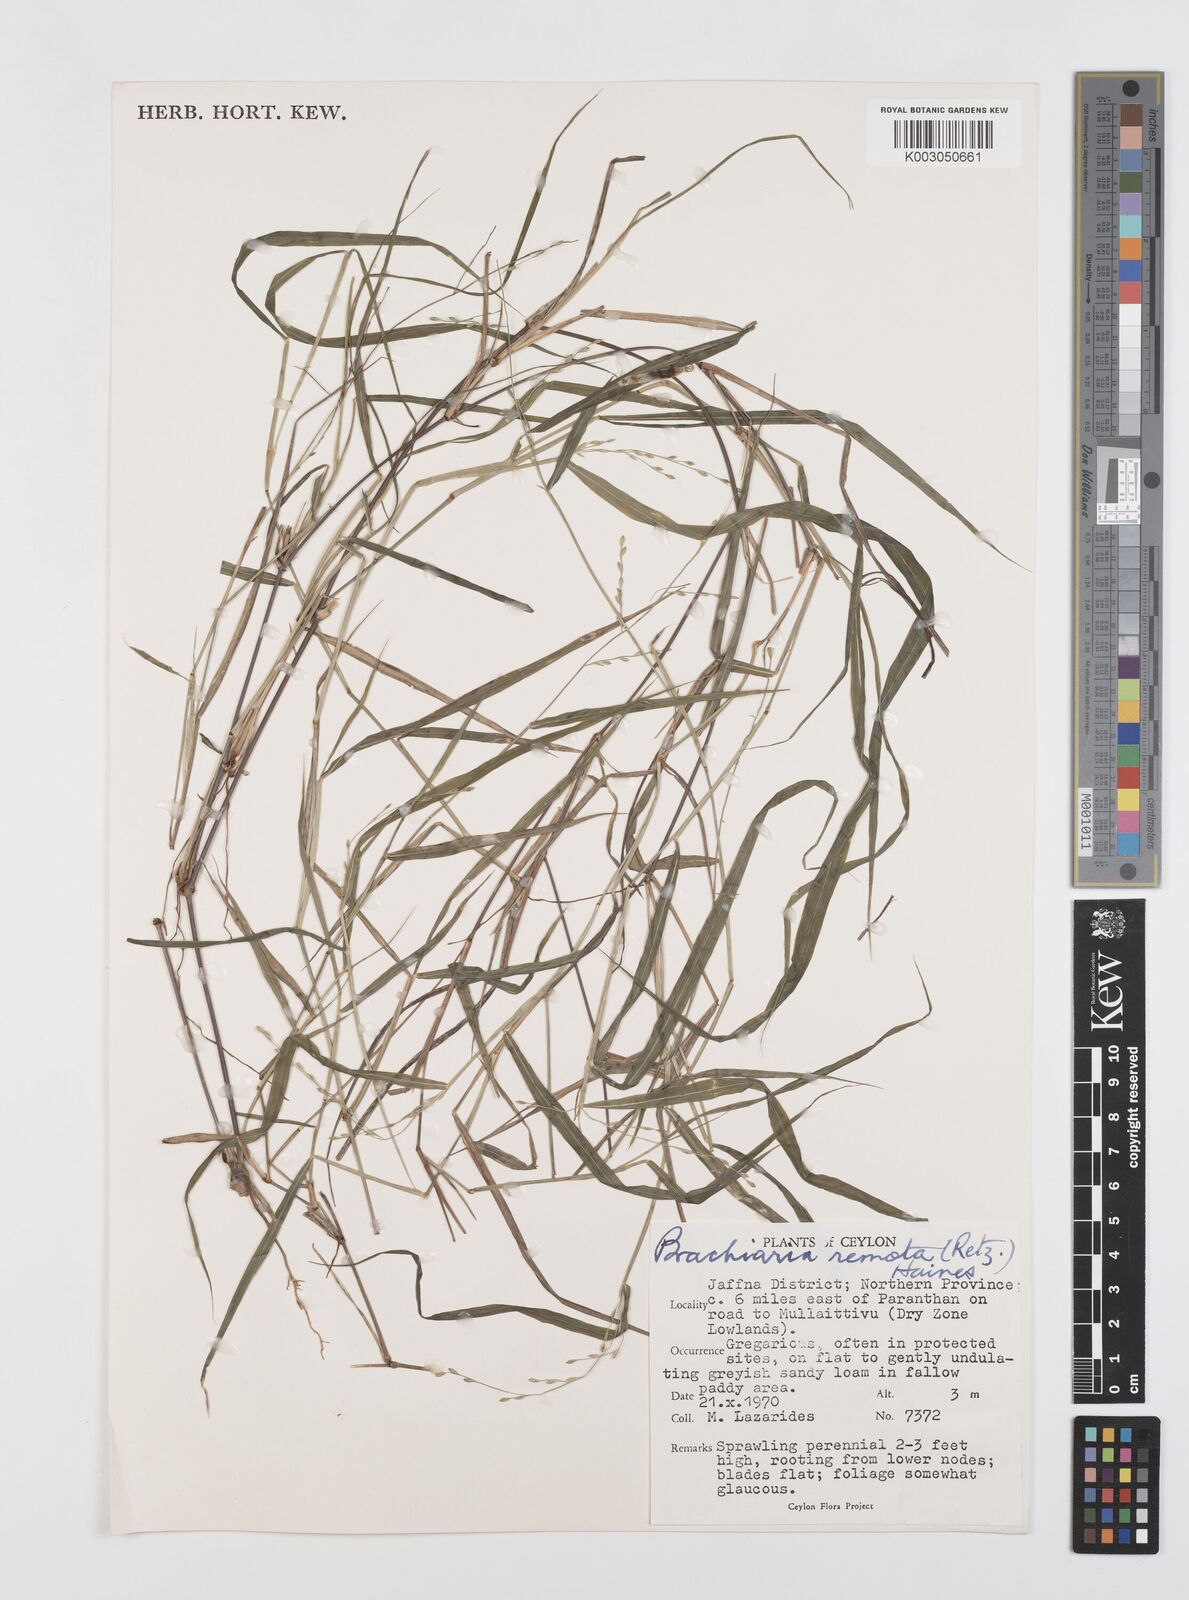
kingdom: Plantae
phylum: Tracheophyta
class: Liliopsida
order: Poales
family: Poaceae
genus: Urochloa
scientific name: Urochloa Brachiaria remota
